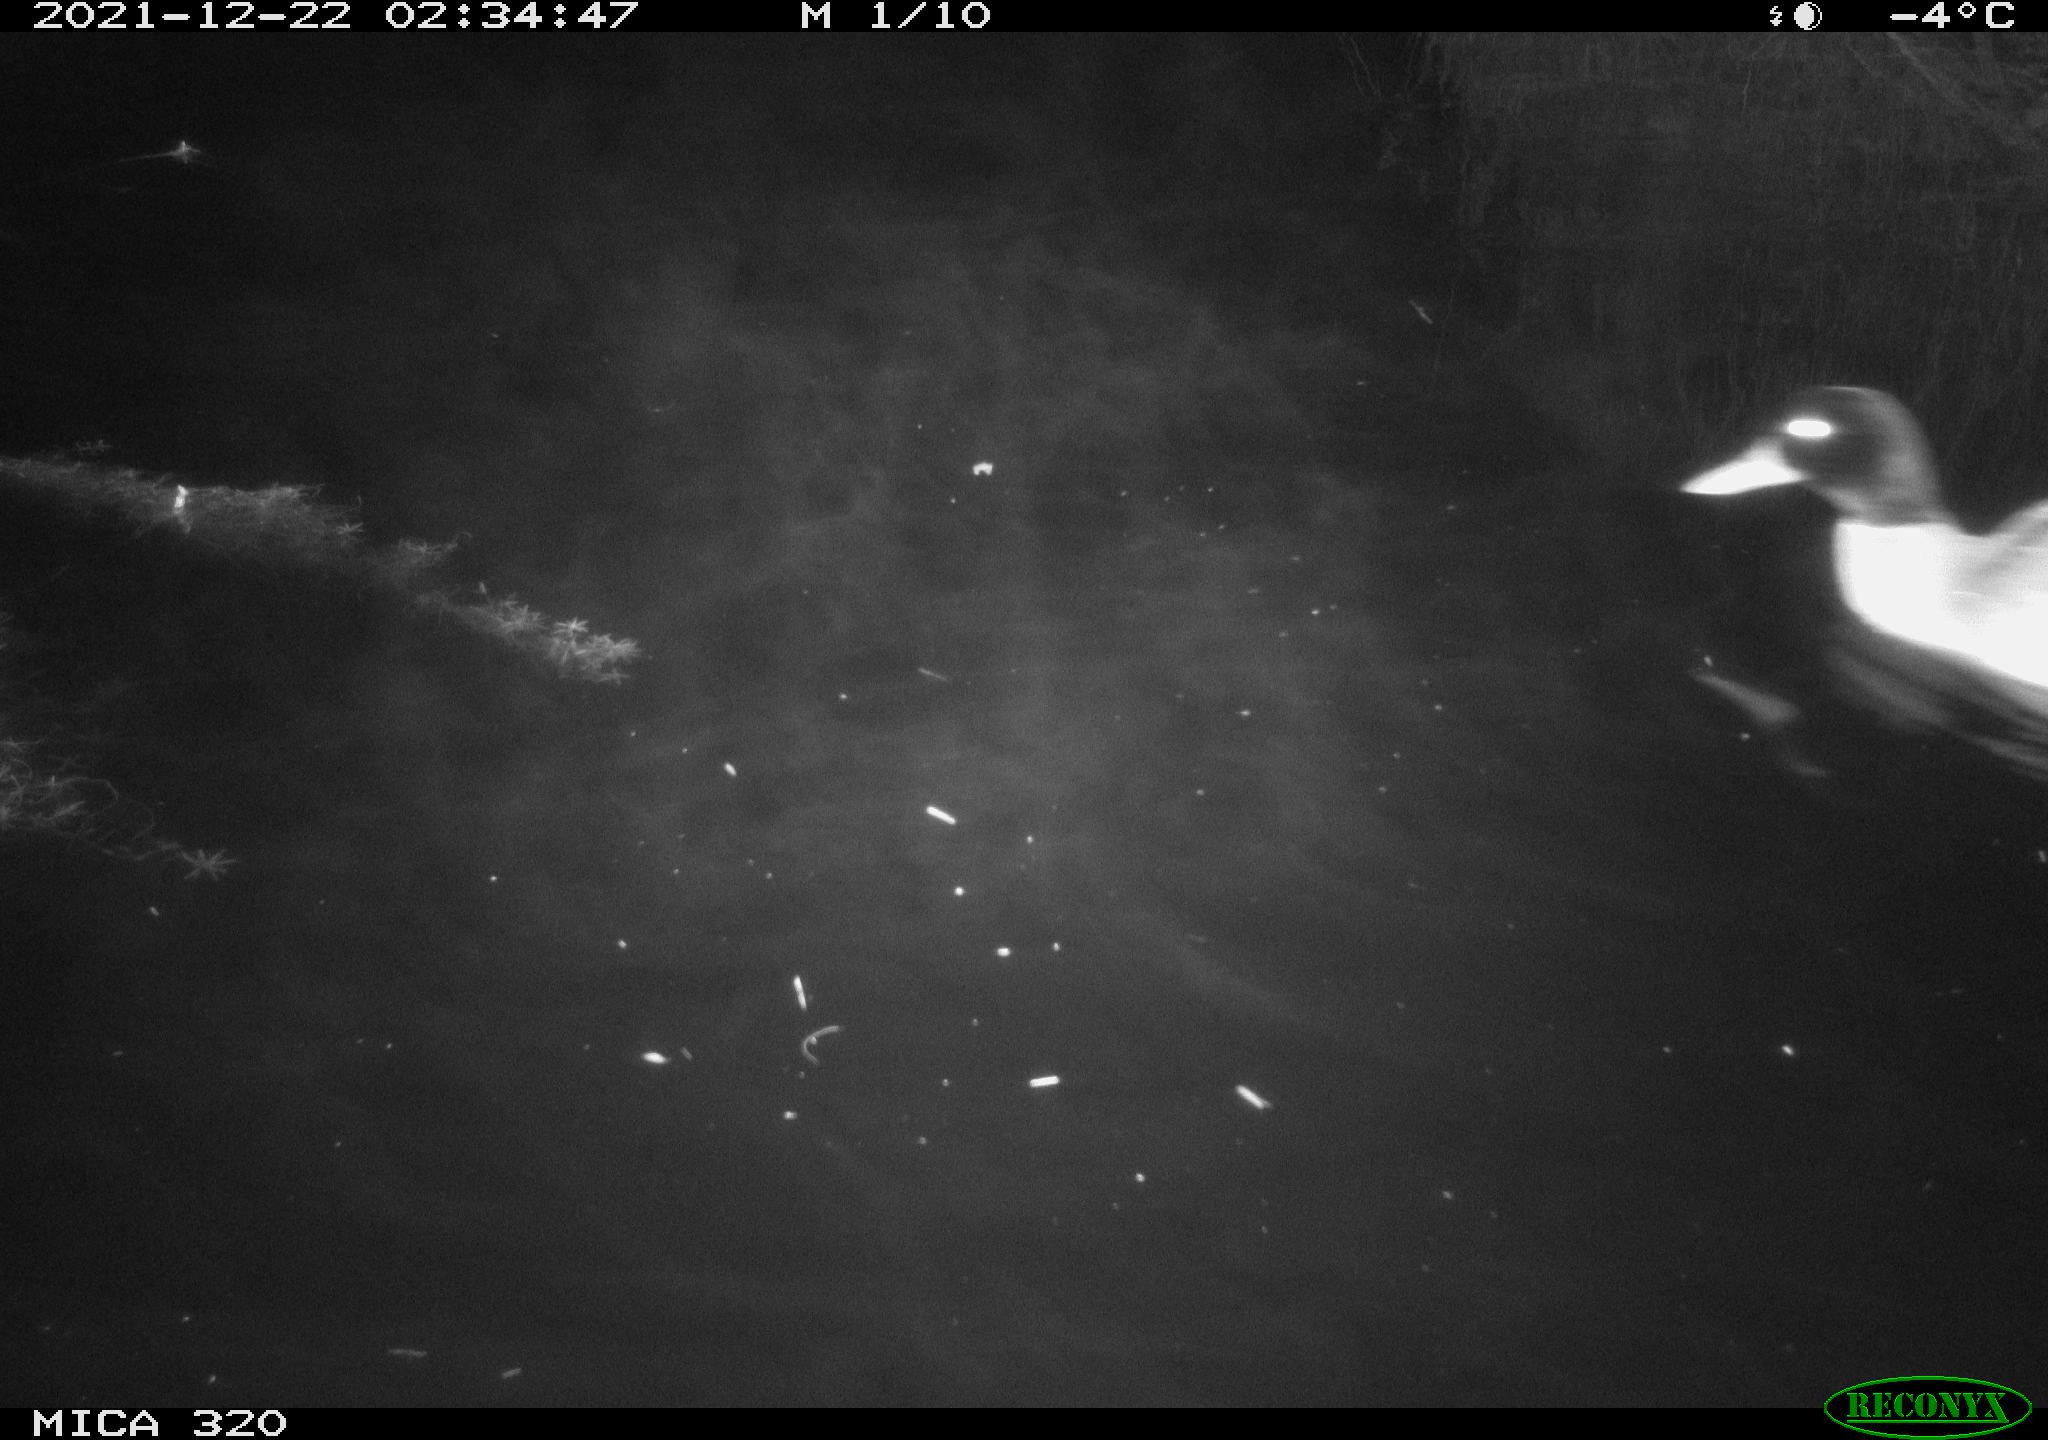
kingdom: Animalia
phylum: Chordata
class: Aves
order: Anseriformes
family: Anatidae
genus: Mareca
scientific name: Mareca strepera
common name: Gadwall
